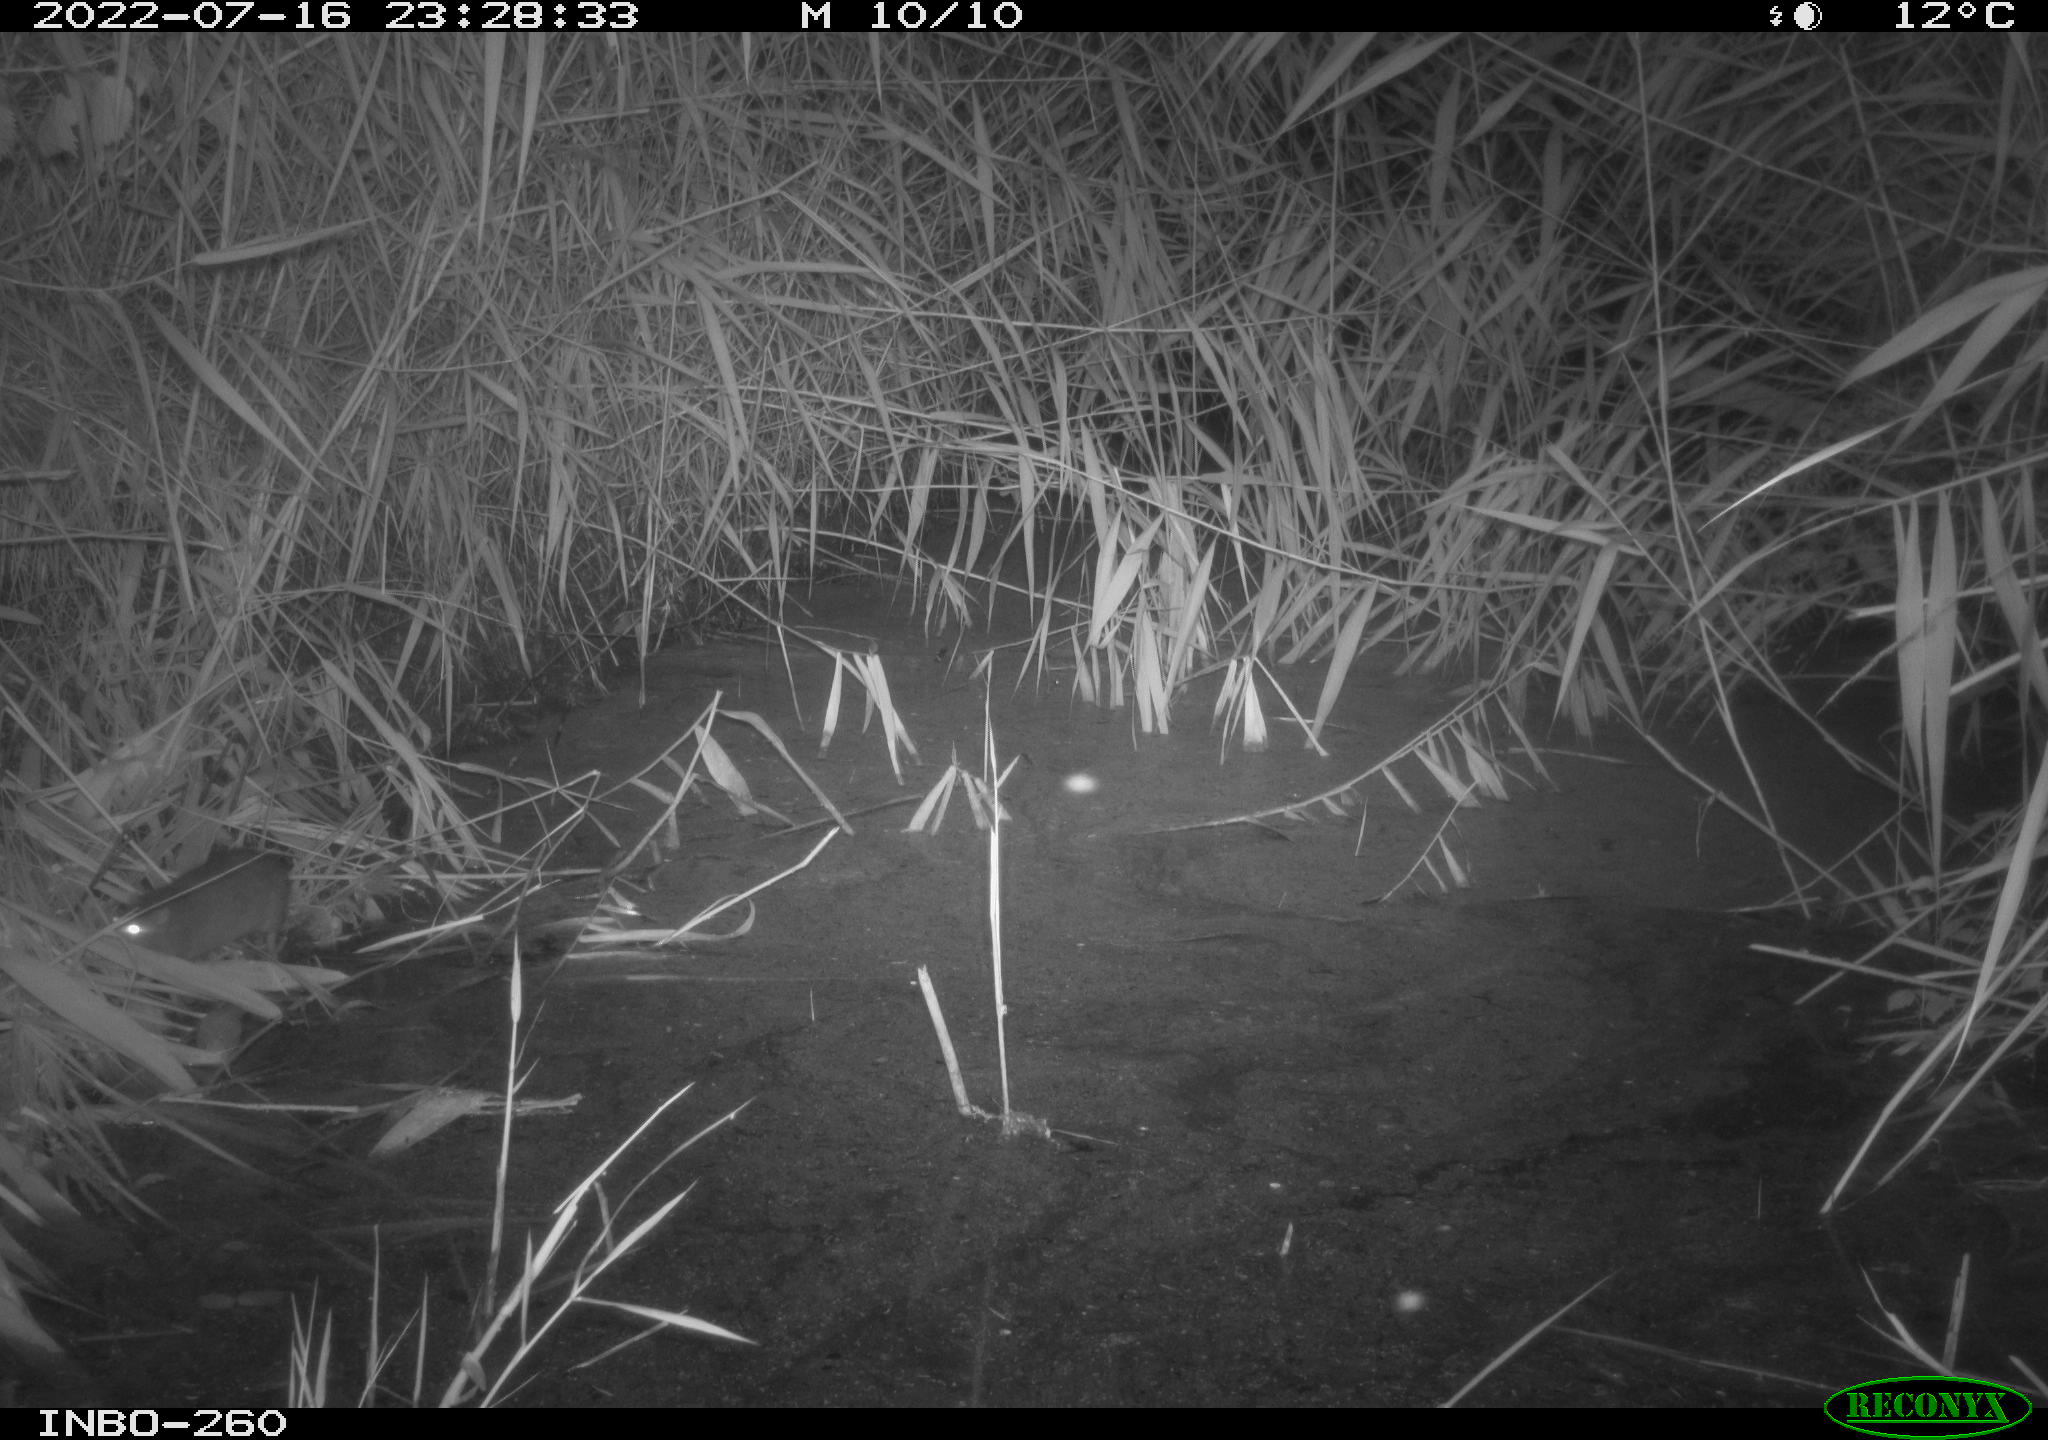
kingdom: Animalia
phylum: Chordata
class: Mammalia
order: Rodentia
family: Muridae
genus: Rattus
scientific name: Rattus norvegicus
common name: Brown rat
